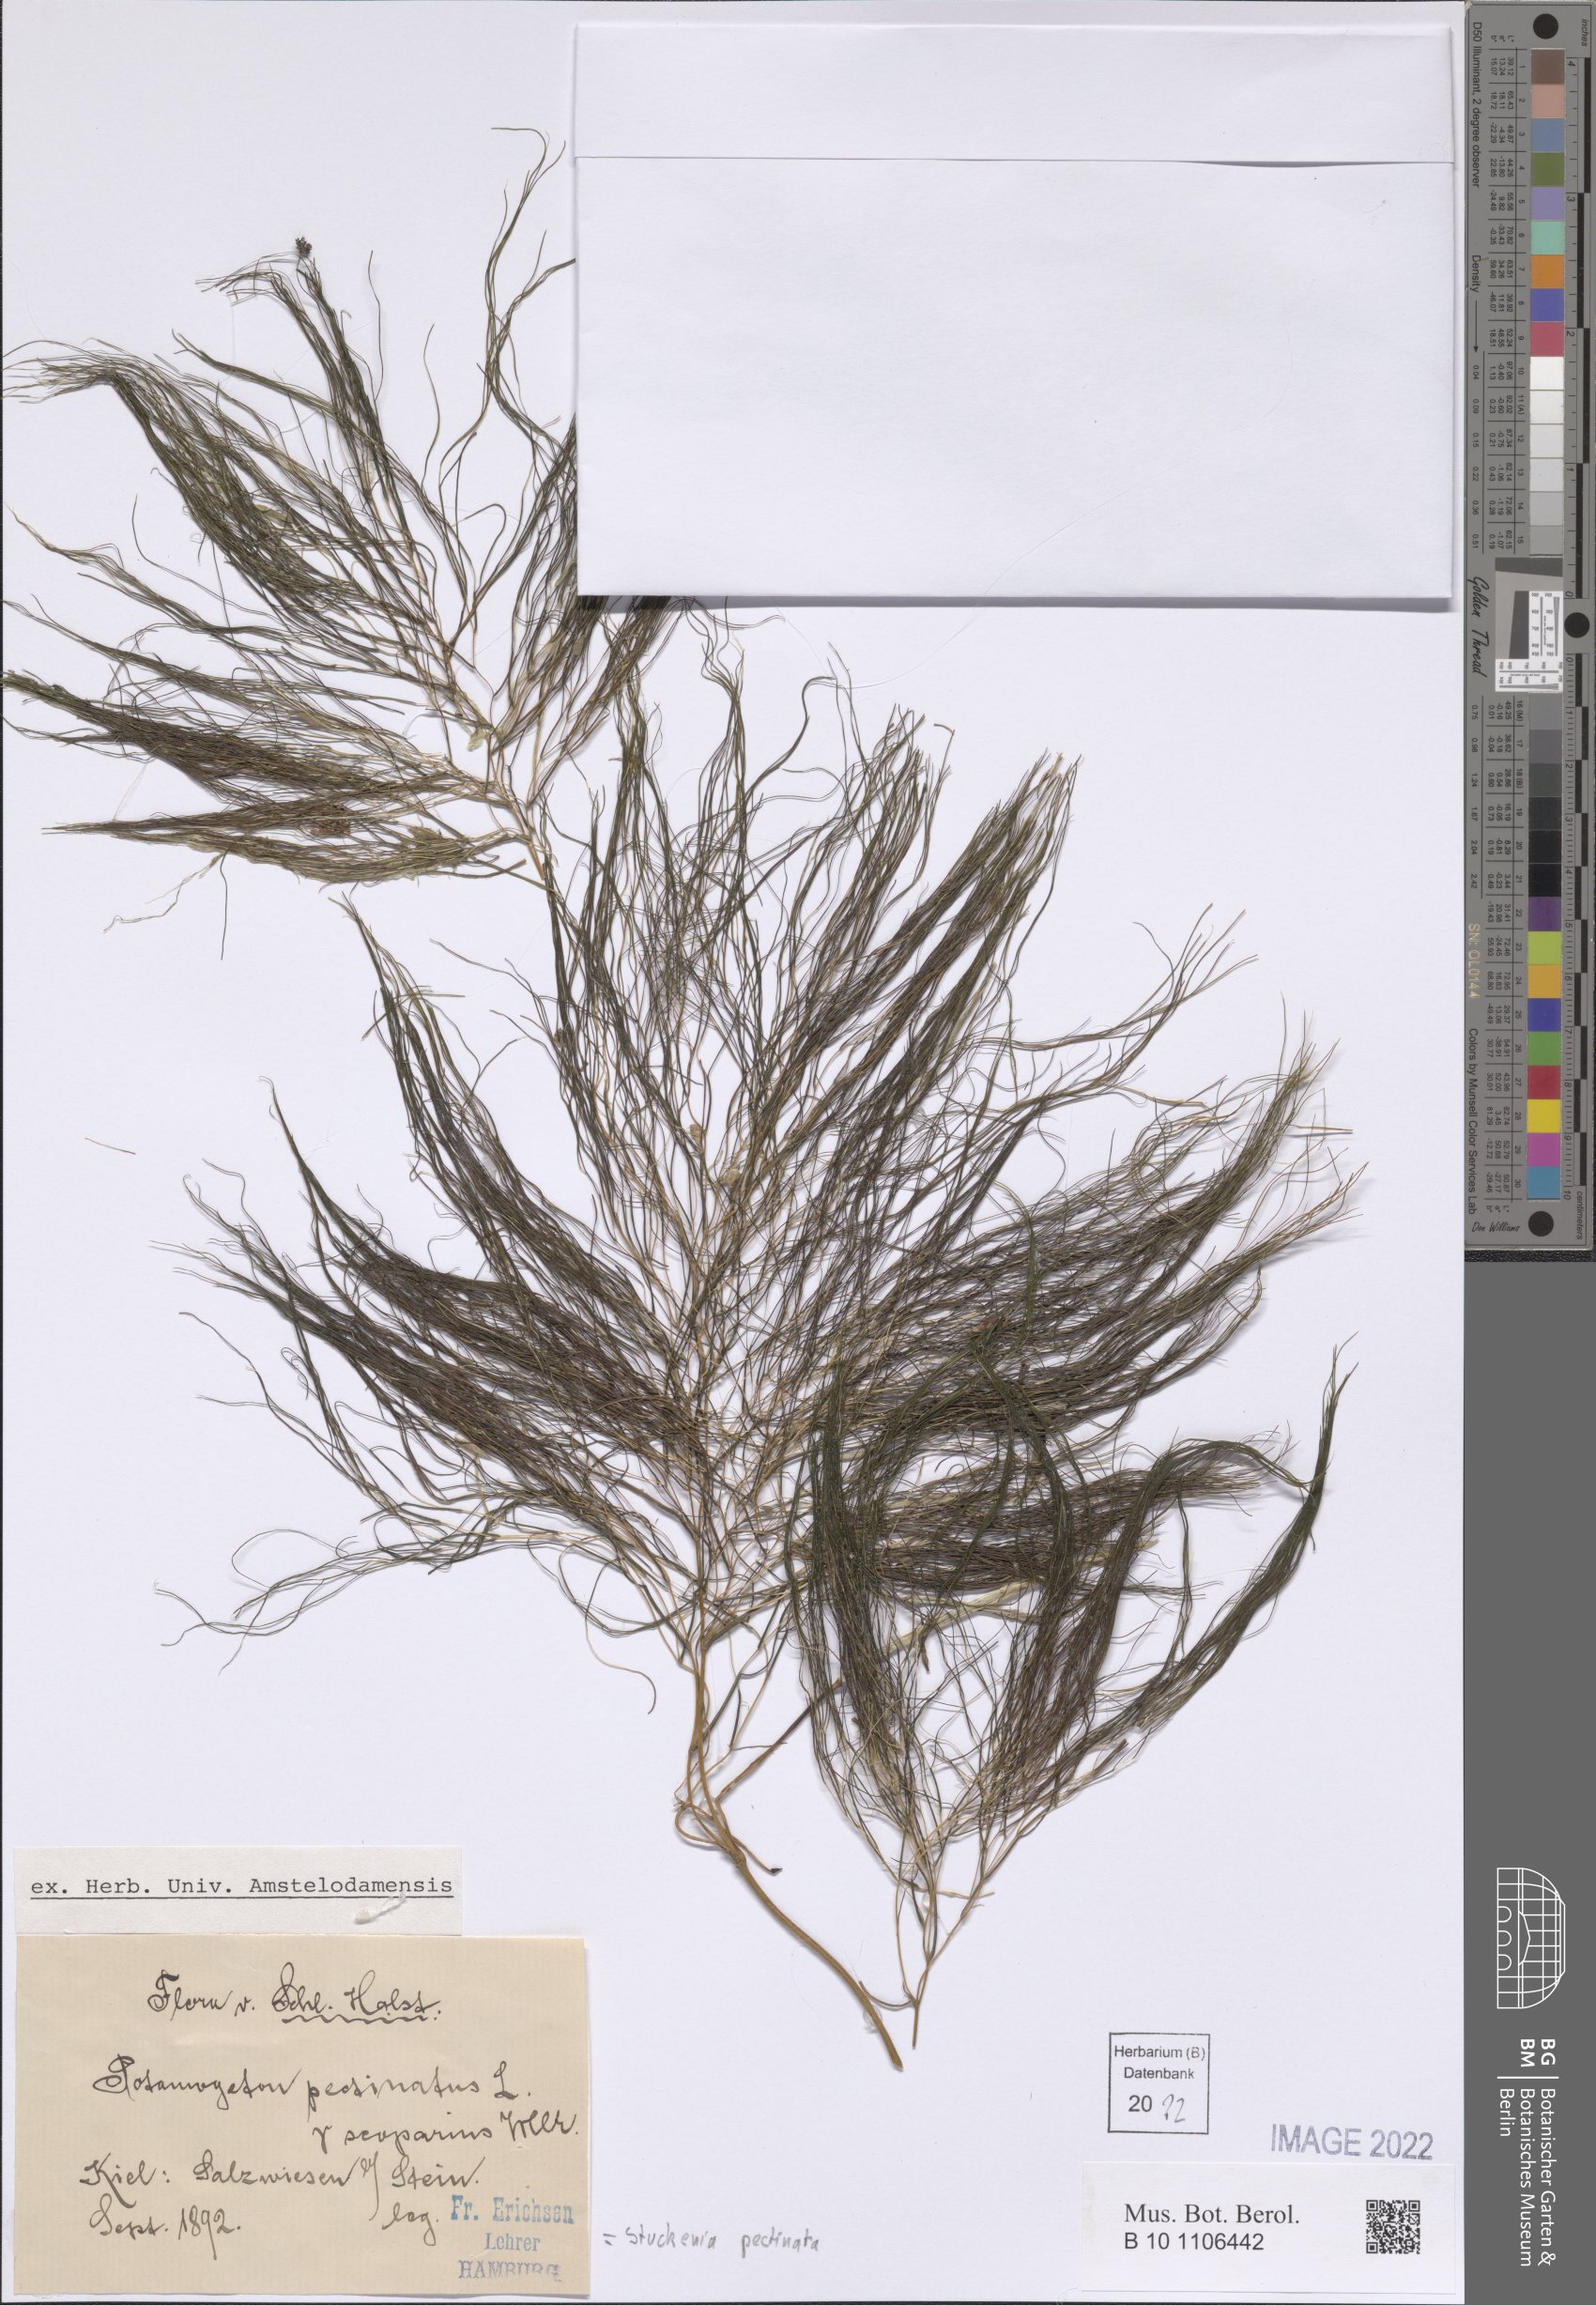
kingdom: Plantae
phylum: Tracheophyta
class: Liliopsida
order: Alismatales
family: Potamogetonaceae
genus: Stuckenia
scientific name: Stuckenia pectinata
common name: Sago pondweed
